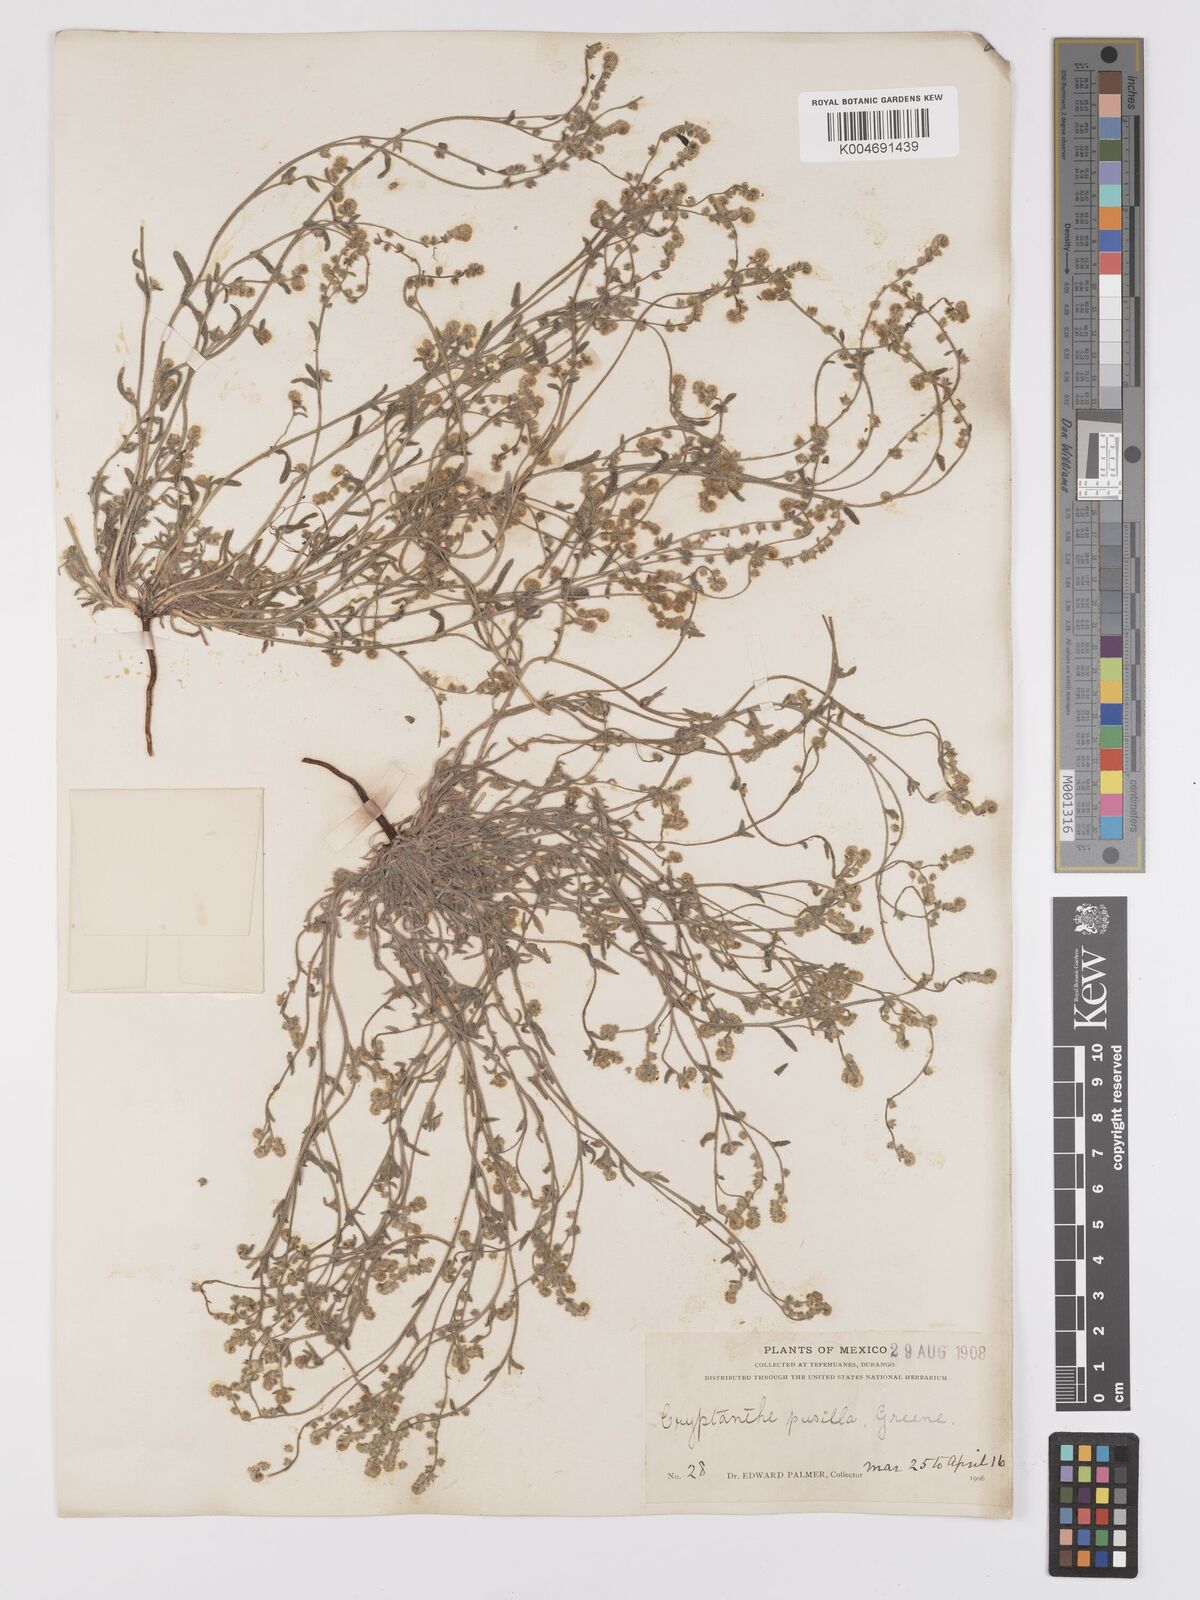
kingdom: Plantae
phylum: Tracheophyta
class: Magnoliopsida
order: Boraginales
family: Boraginaceae
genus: Johnstonella
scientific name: Johnstonella pusilla
